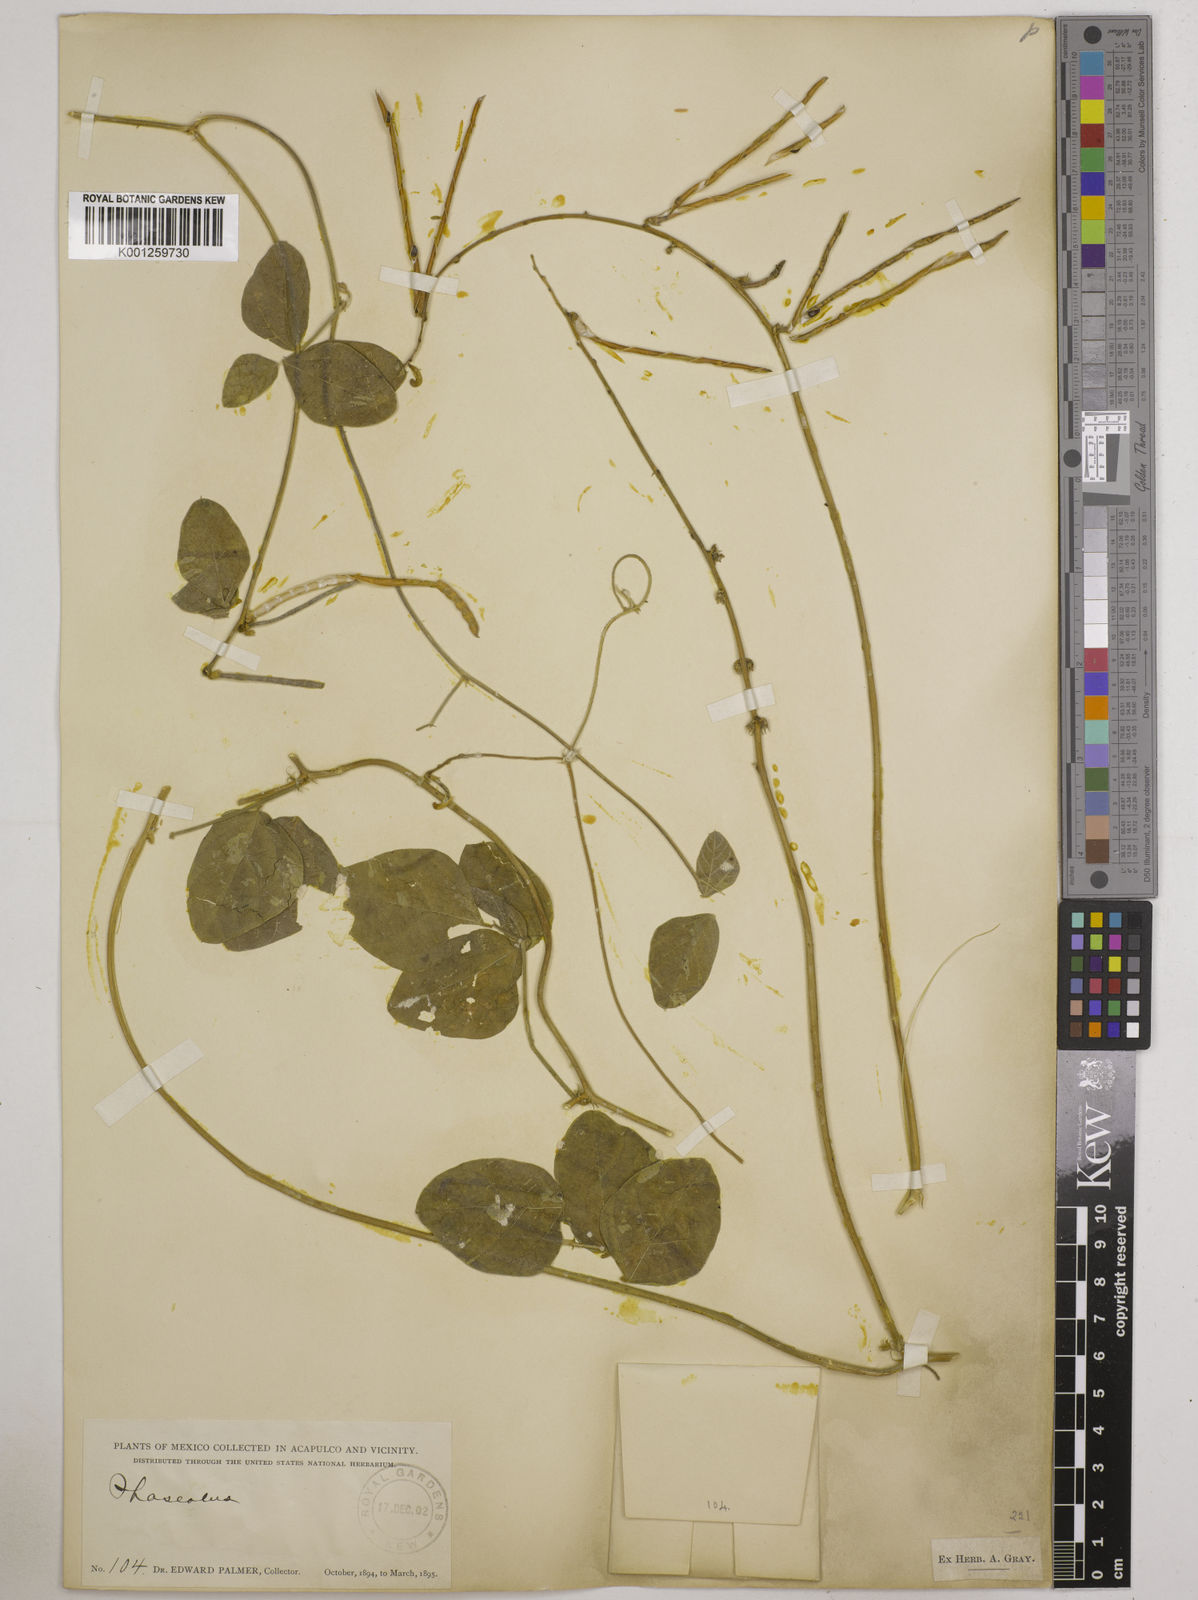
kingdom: Plantae
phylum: Tracheophyta
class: Magnoliopsida
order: Fabales
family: Fabaceae
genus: Macroptilium
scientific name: Macroptilium atropurpureum
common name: Purple bushbean
